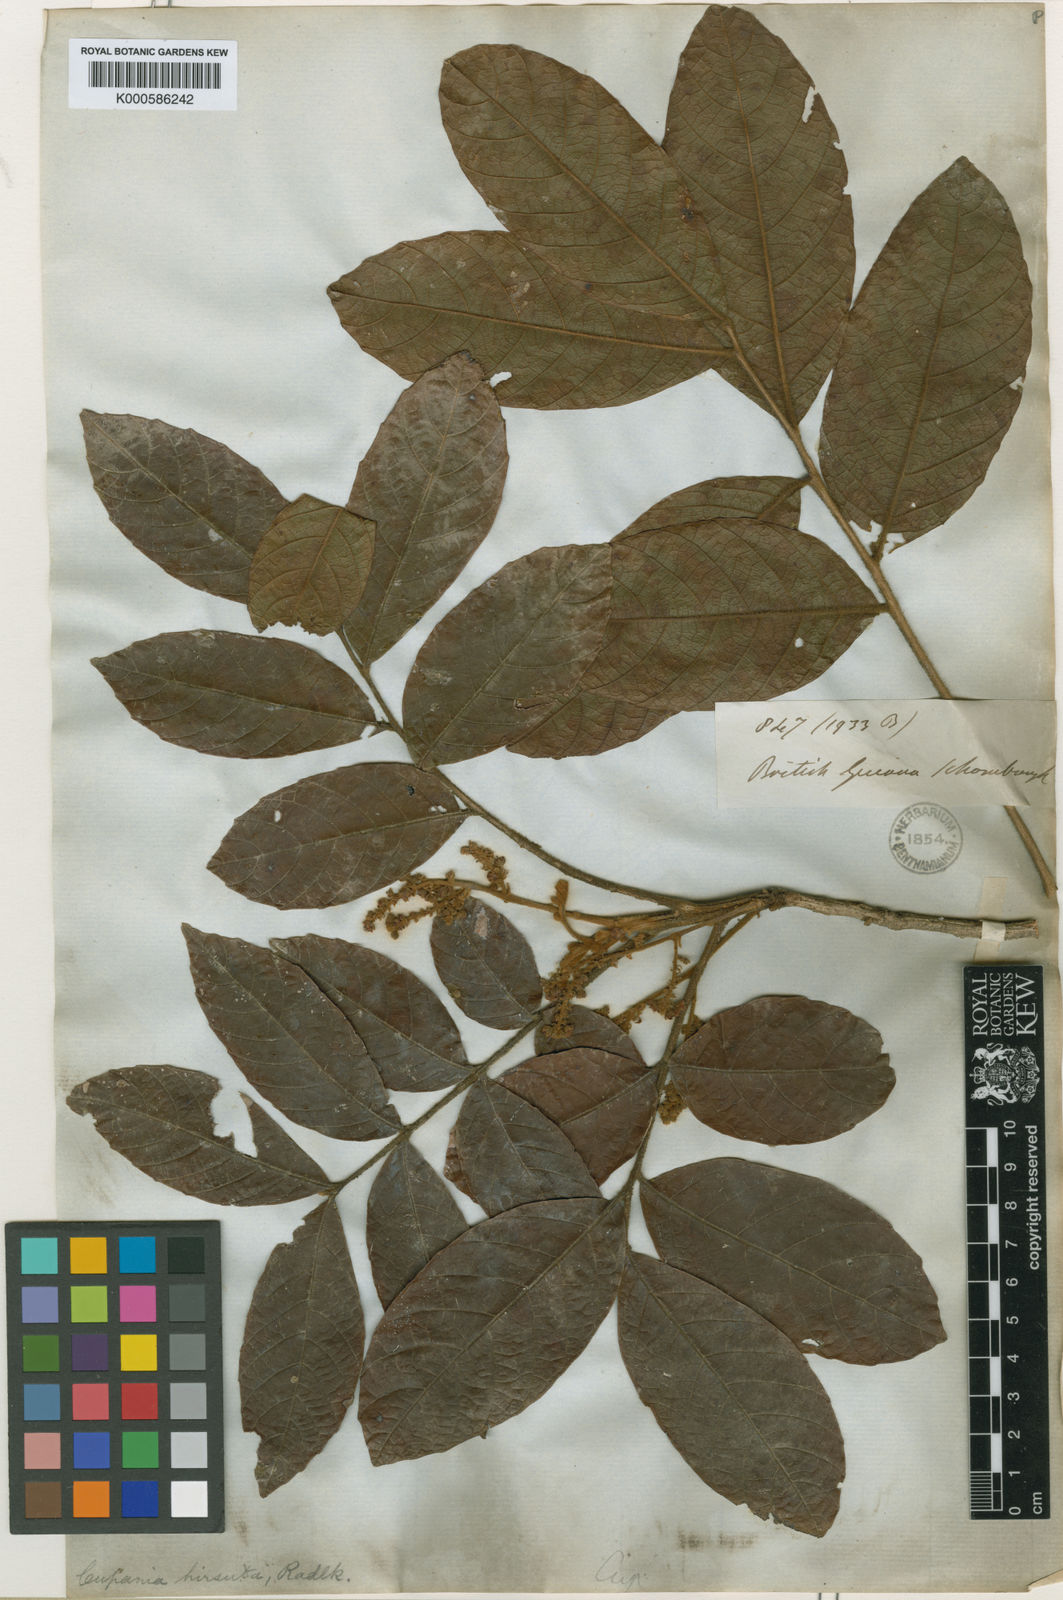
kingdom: Plantae
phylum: Tracheophyta
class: Magnoliopsida
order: Sapindales
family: Sapindaceae
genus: Cupania
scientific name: Cupania hirsuta
